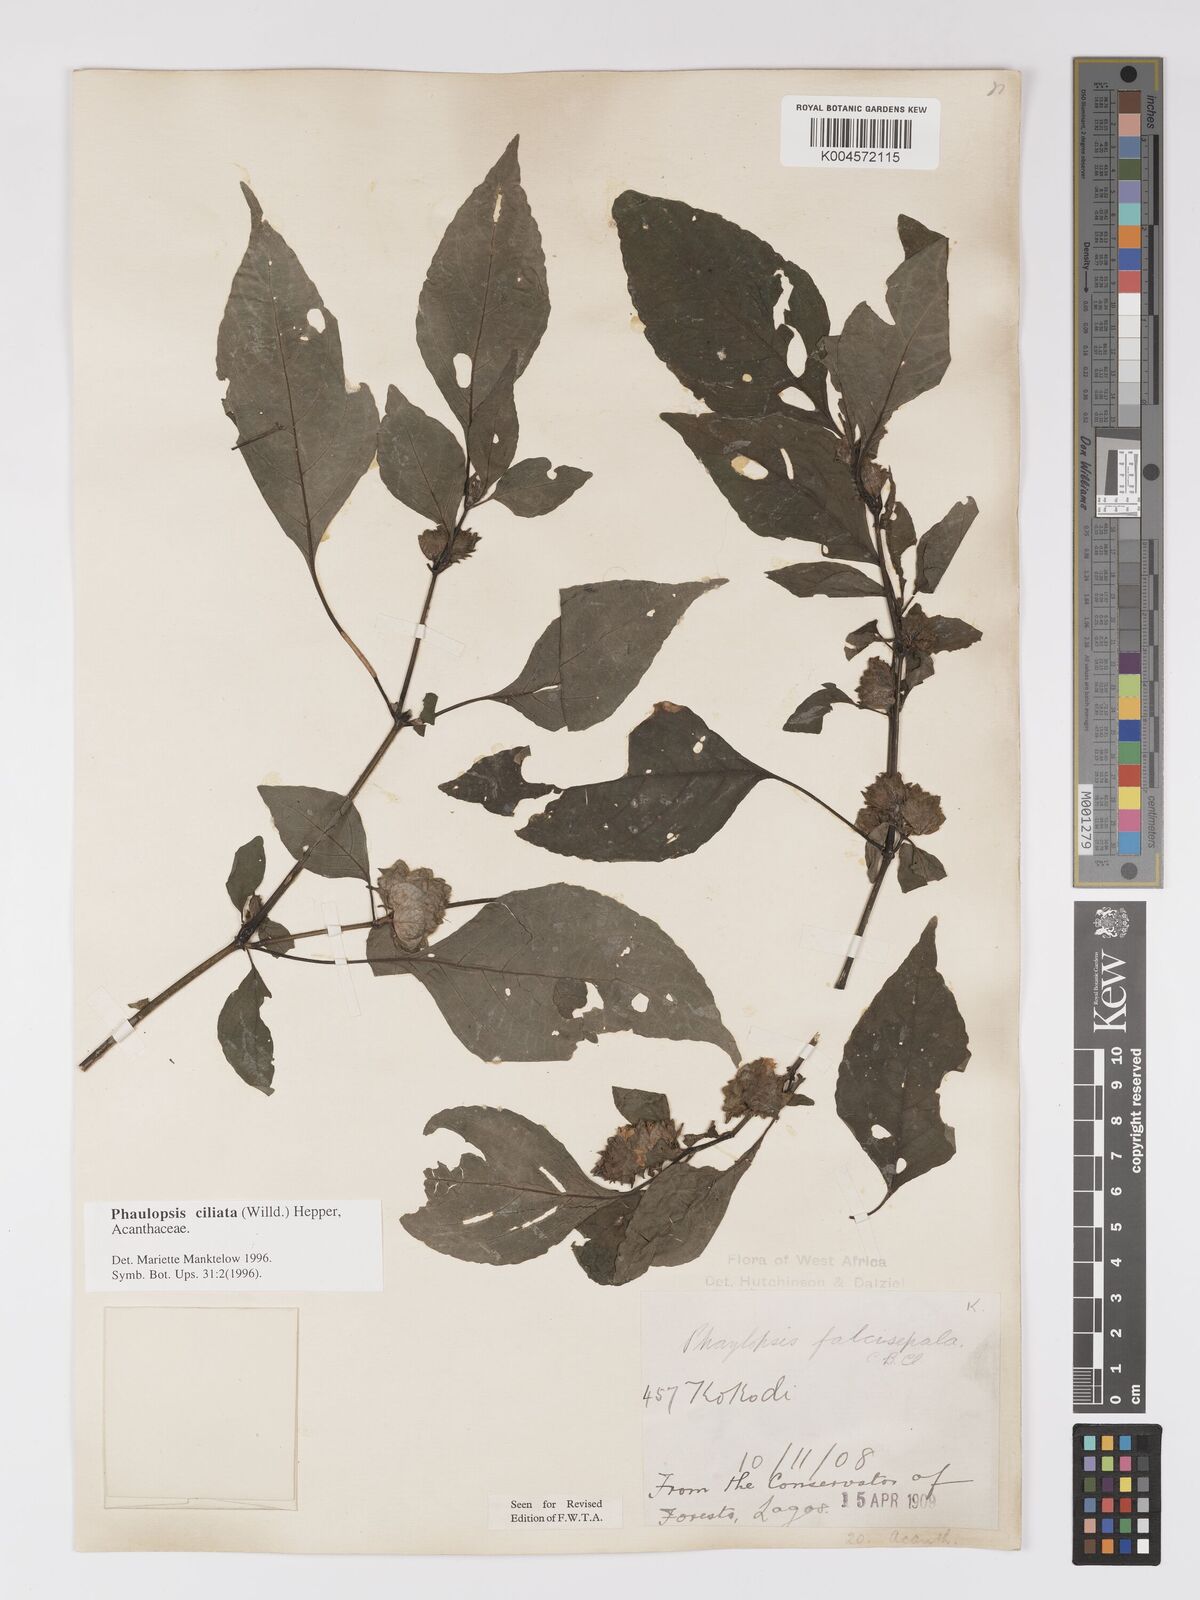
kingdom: Plantae
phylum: Tracheophyta
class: Magnoliopsida
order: Lamiales
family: Acanthaceae
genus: Phaulopsis
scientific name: Phaulopsis ciliata
